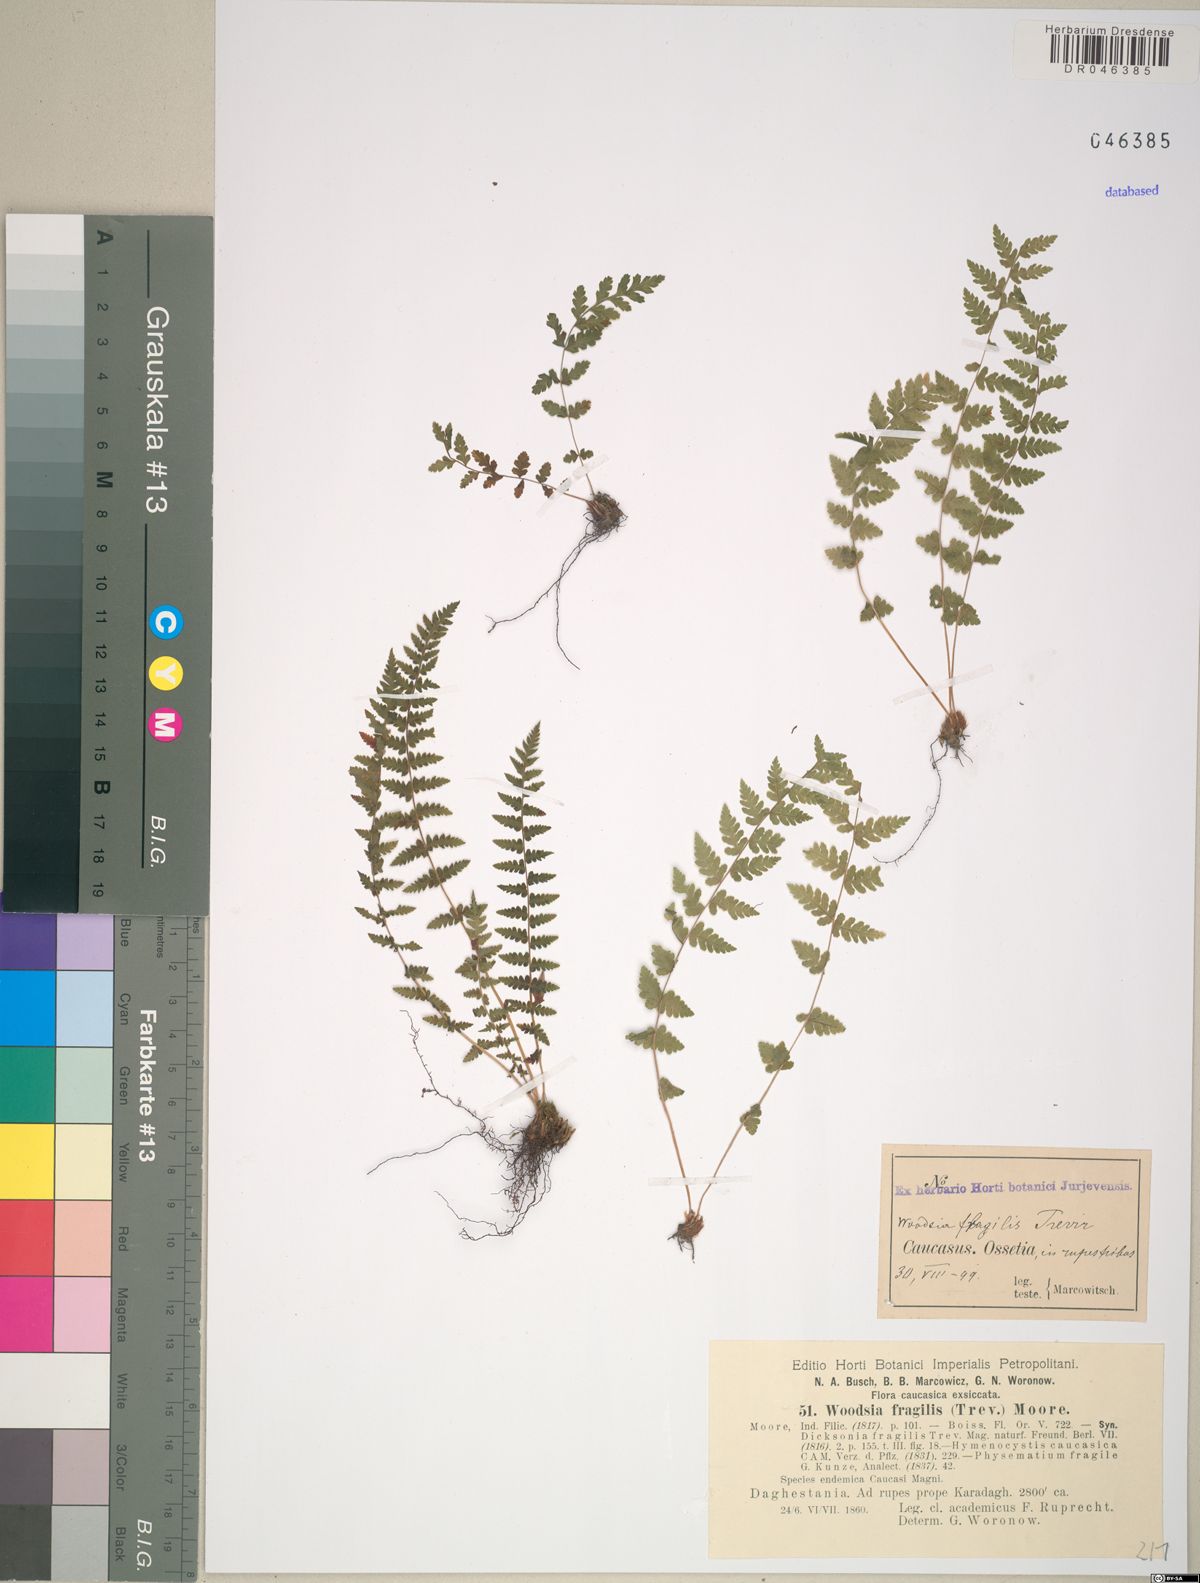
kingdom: Plantae
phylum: Tracheophyta
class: Polypodiopsida
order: Polypodiales
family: Woodsiaceae
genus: Physematium
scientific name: Physematium fragile
